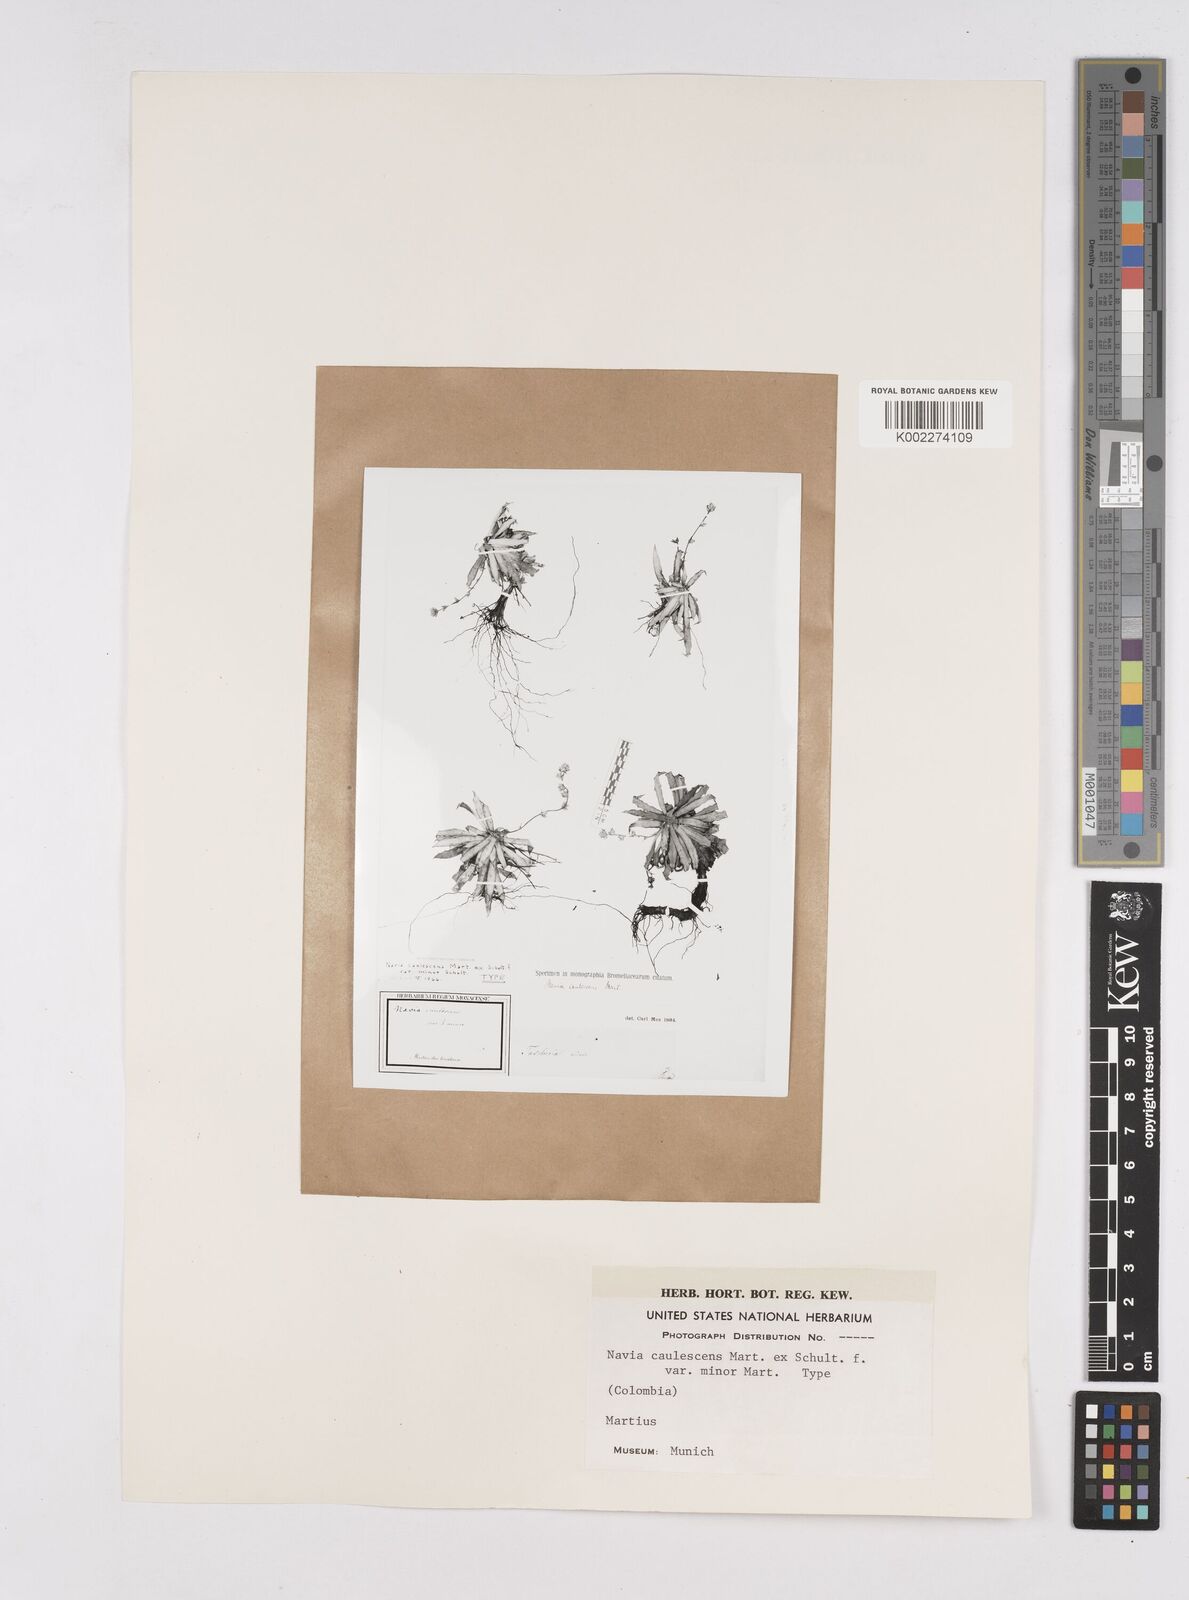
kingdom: Plantae
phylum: Tracheophyta
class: Liliopsida
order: Poales
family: Bromeliaceae
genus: Navia
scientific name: Navia caulescens
